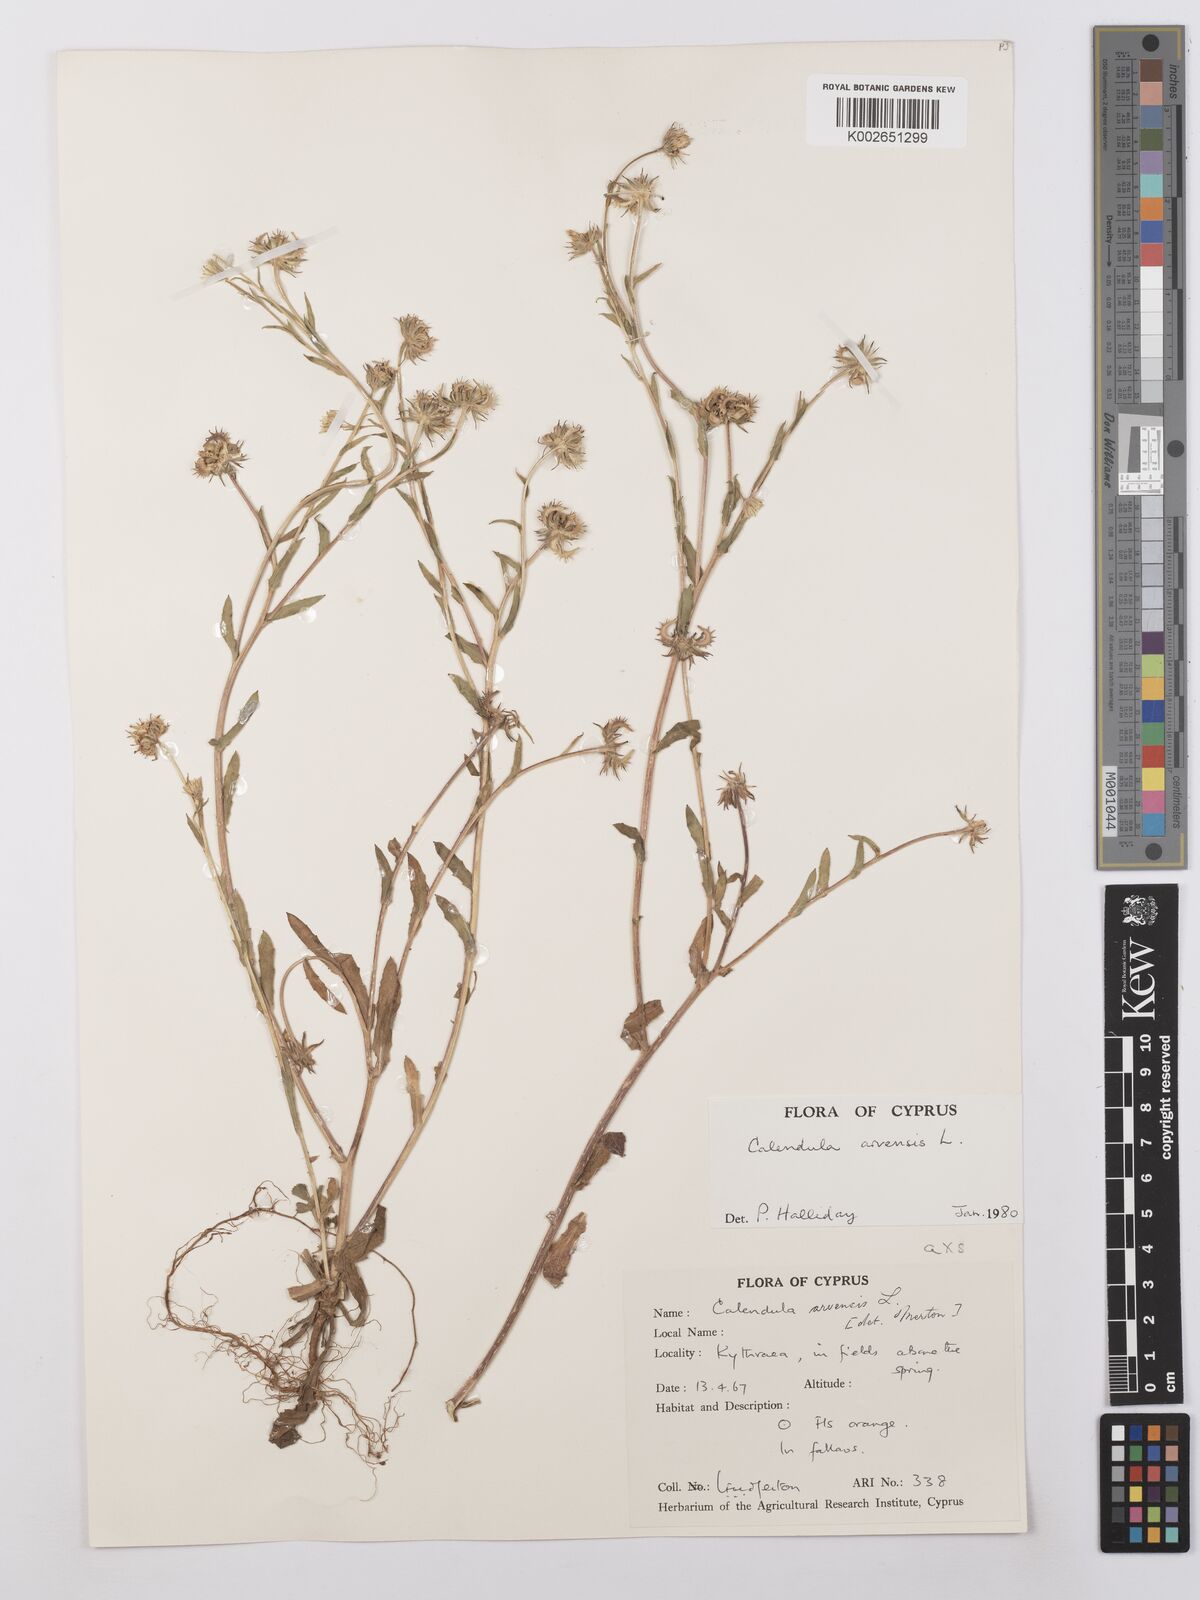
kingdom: Plantae
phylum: Tracheophyta
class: Magnoliopsida
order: Asterales
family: Asteraceae
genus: Calendula
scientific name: Calendula arvensis
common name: Field marigold
